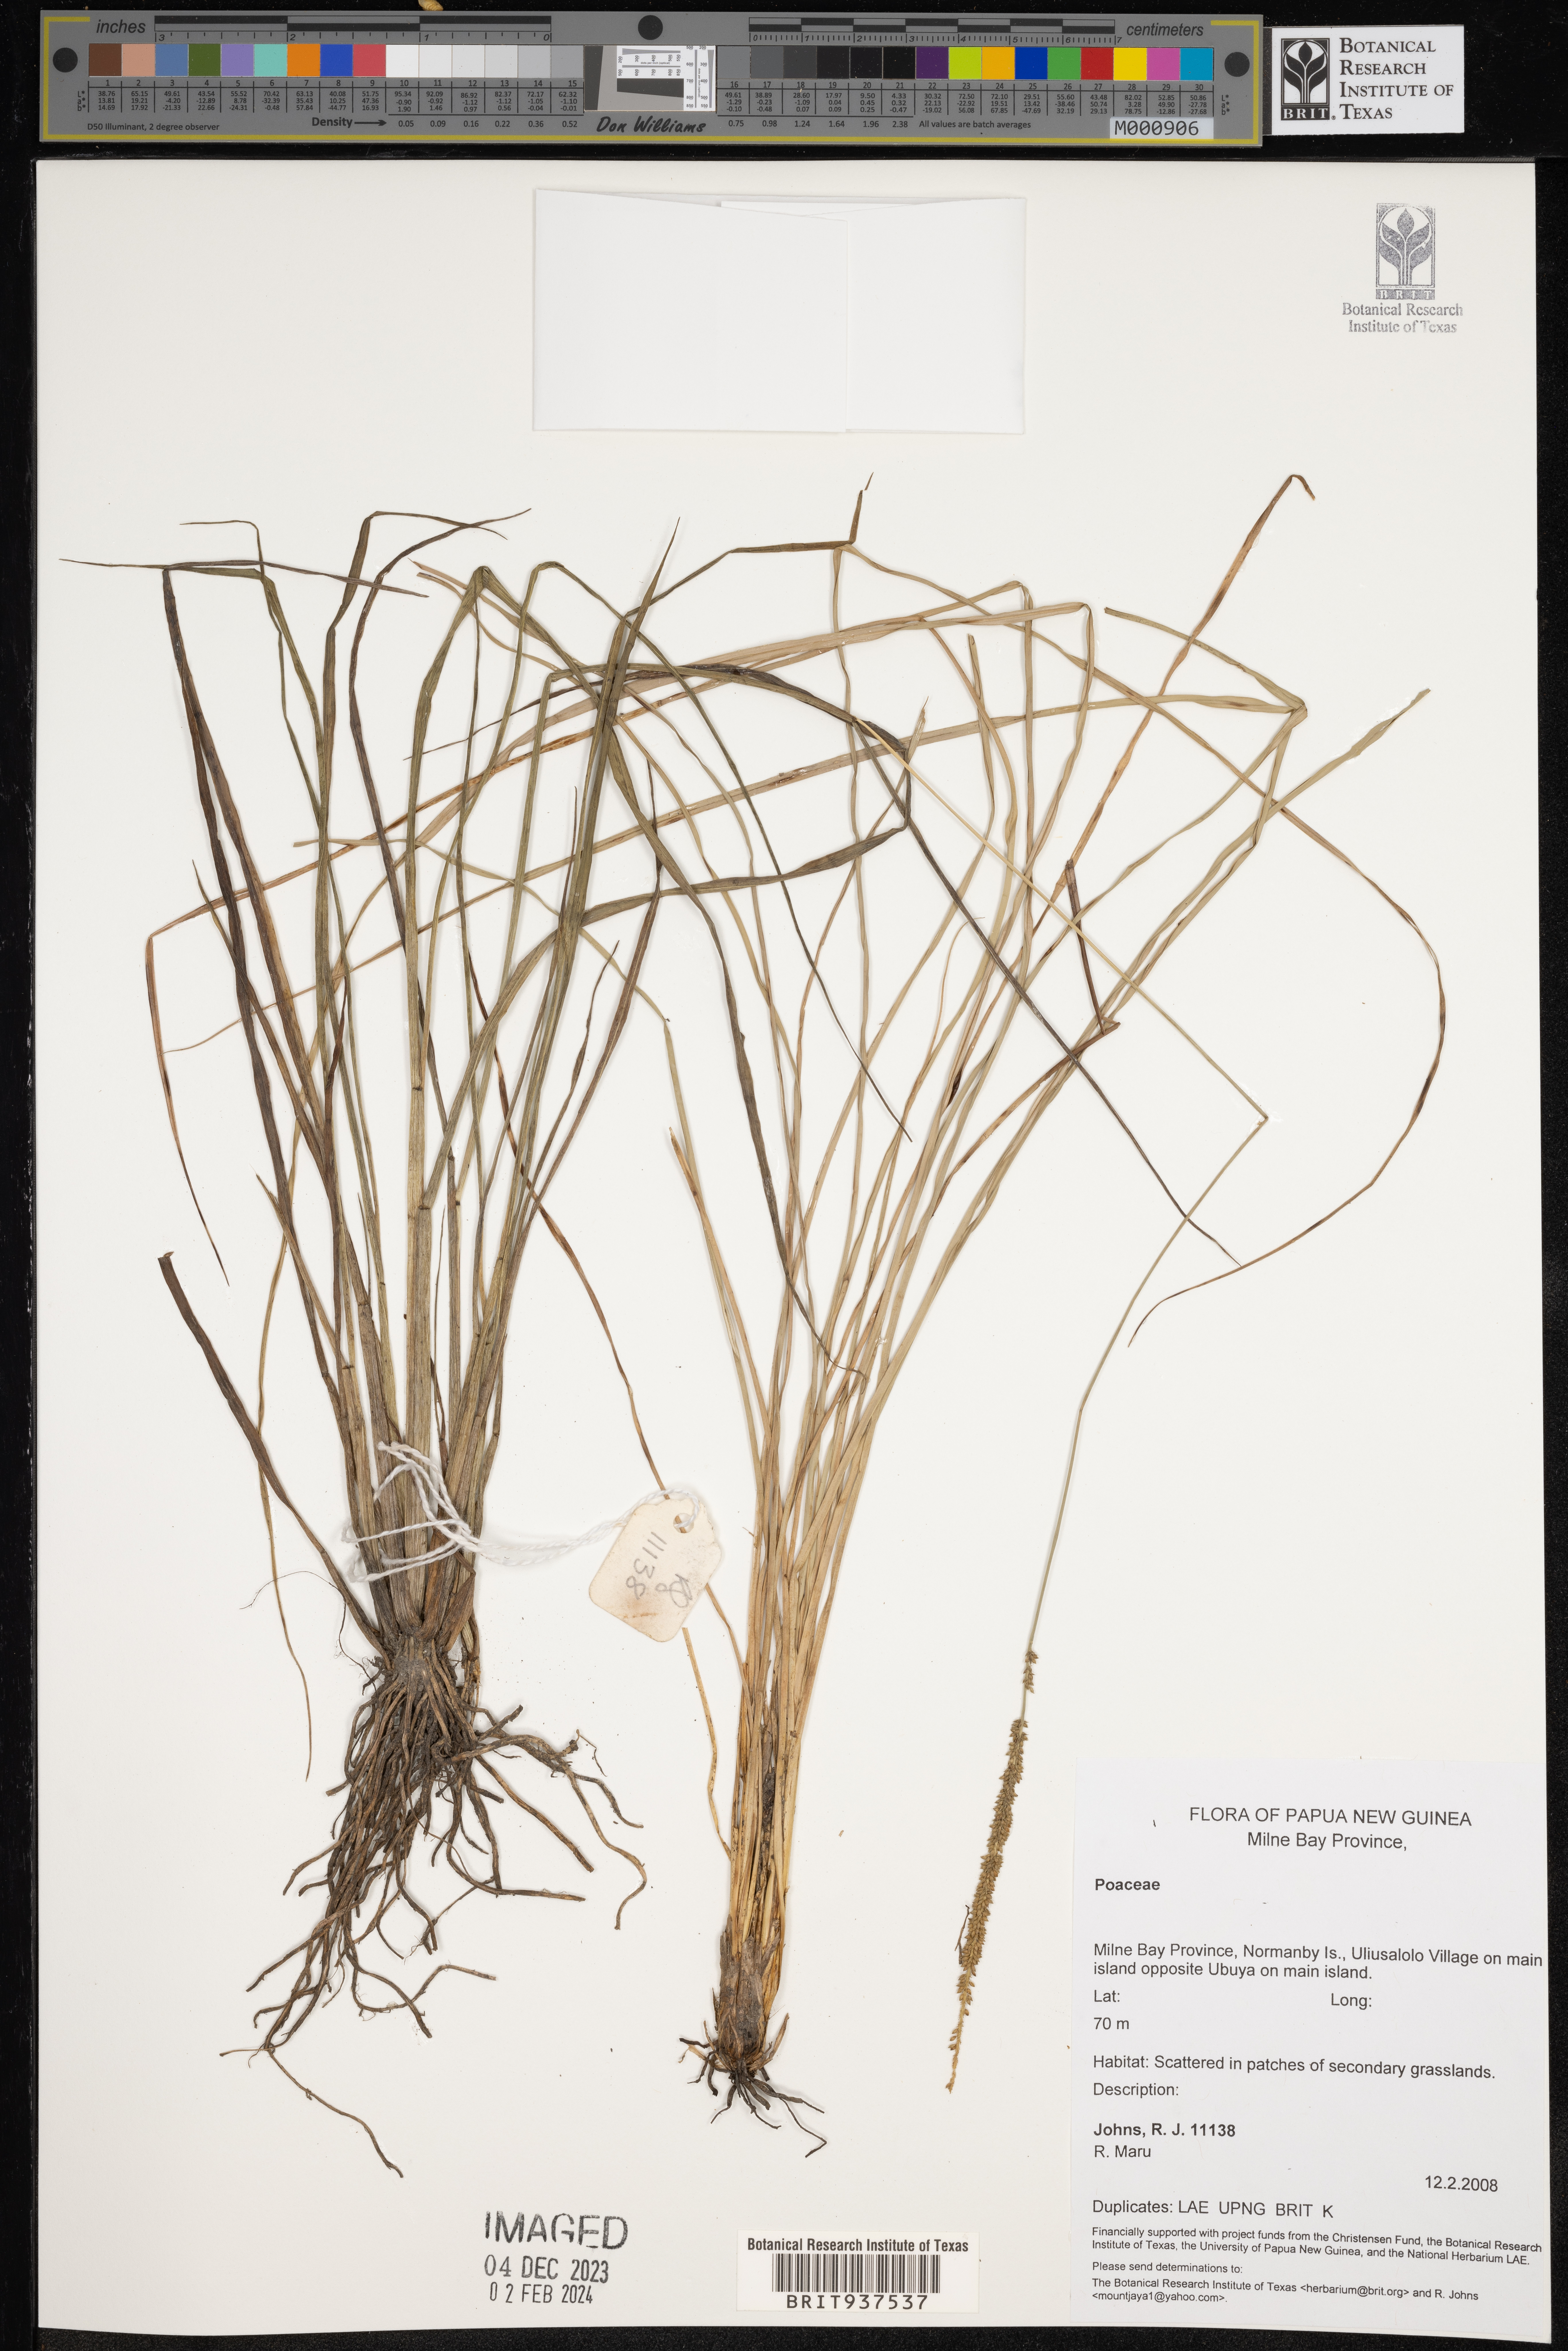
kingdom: Plantae
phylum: Tracheophyta
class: Liliopsida
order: Poales
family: Poaceae
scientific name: Poaceae
